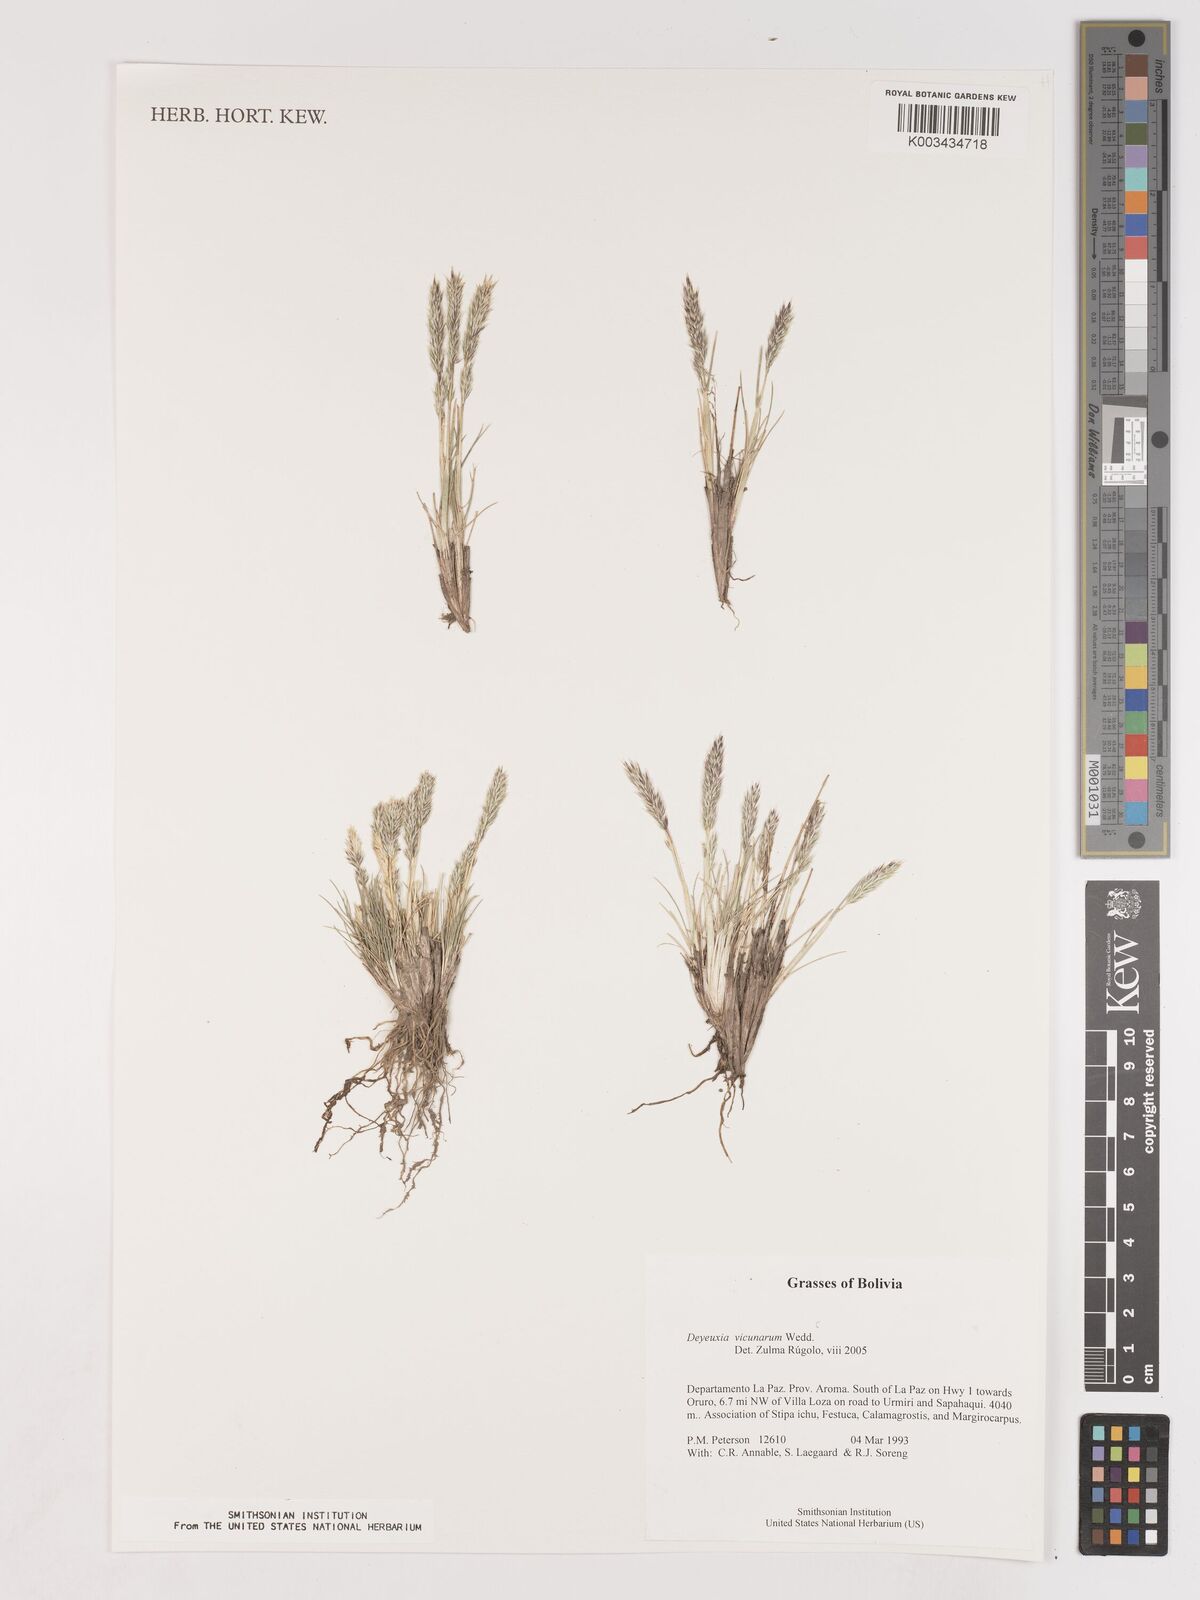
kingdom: Plantae
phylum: Tracheophyta
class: Liliopsida
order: Poales
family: Poaceae
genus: Cinnagrostis
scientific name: Cinnagrostis vicunarum
